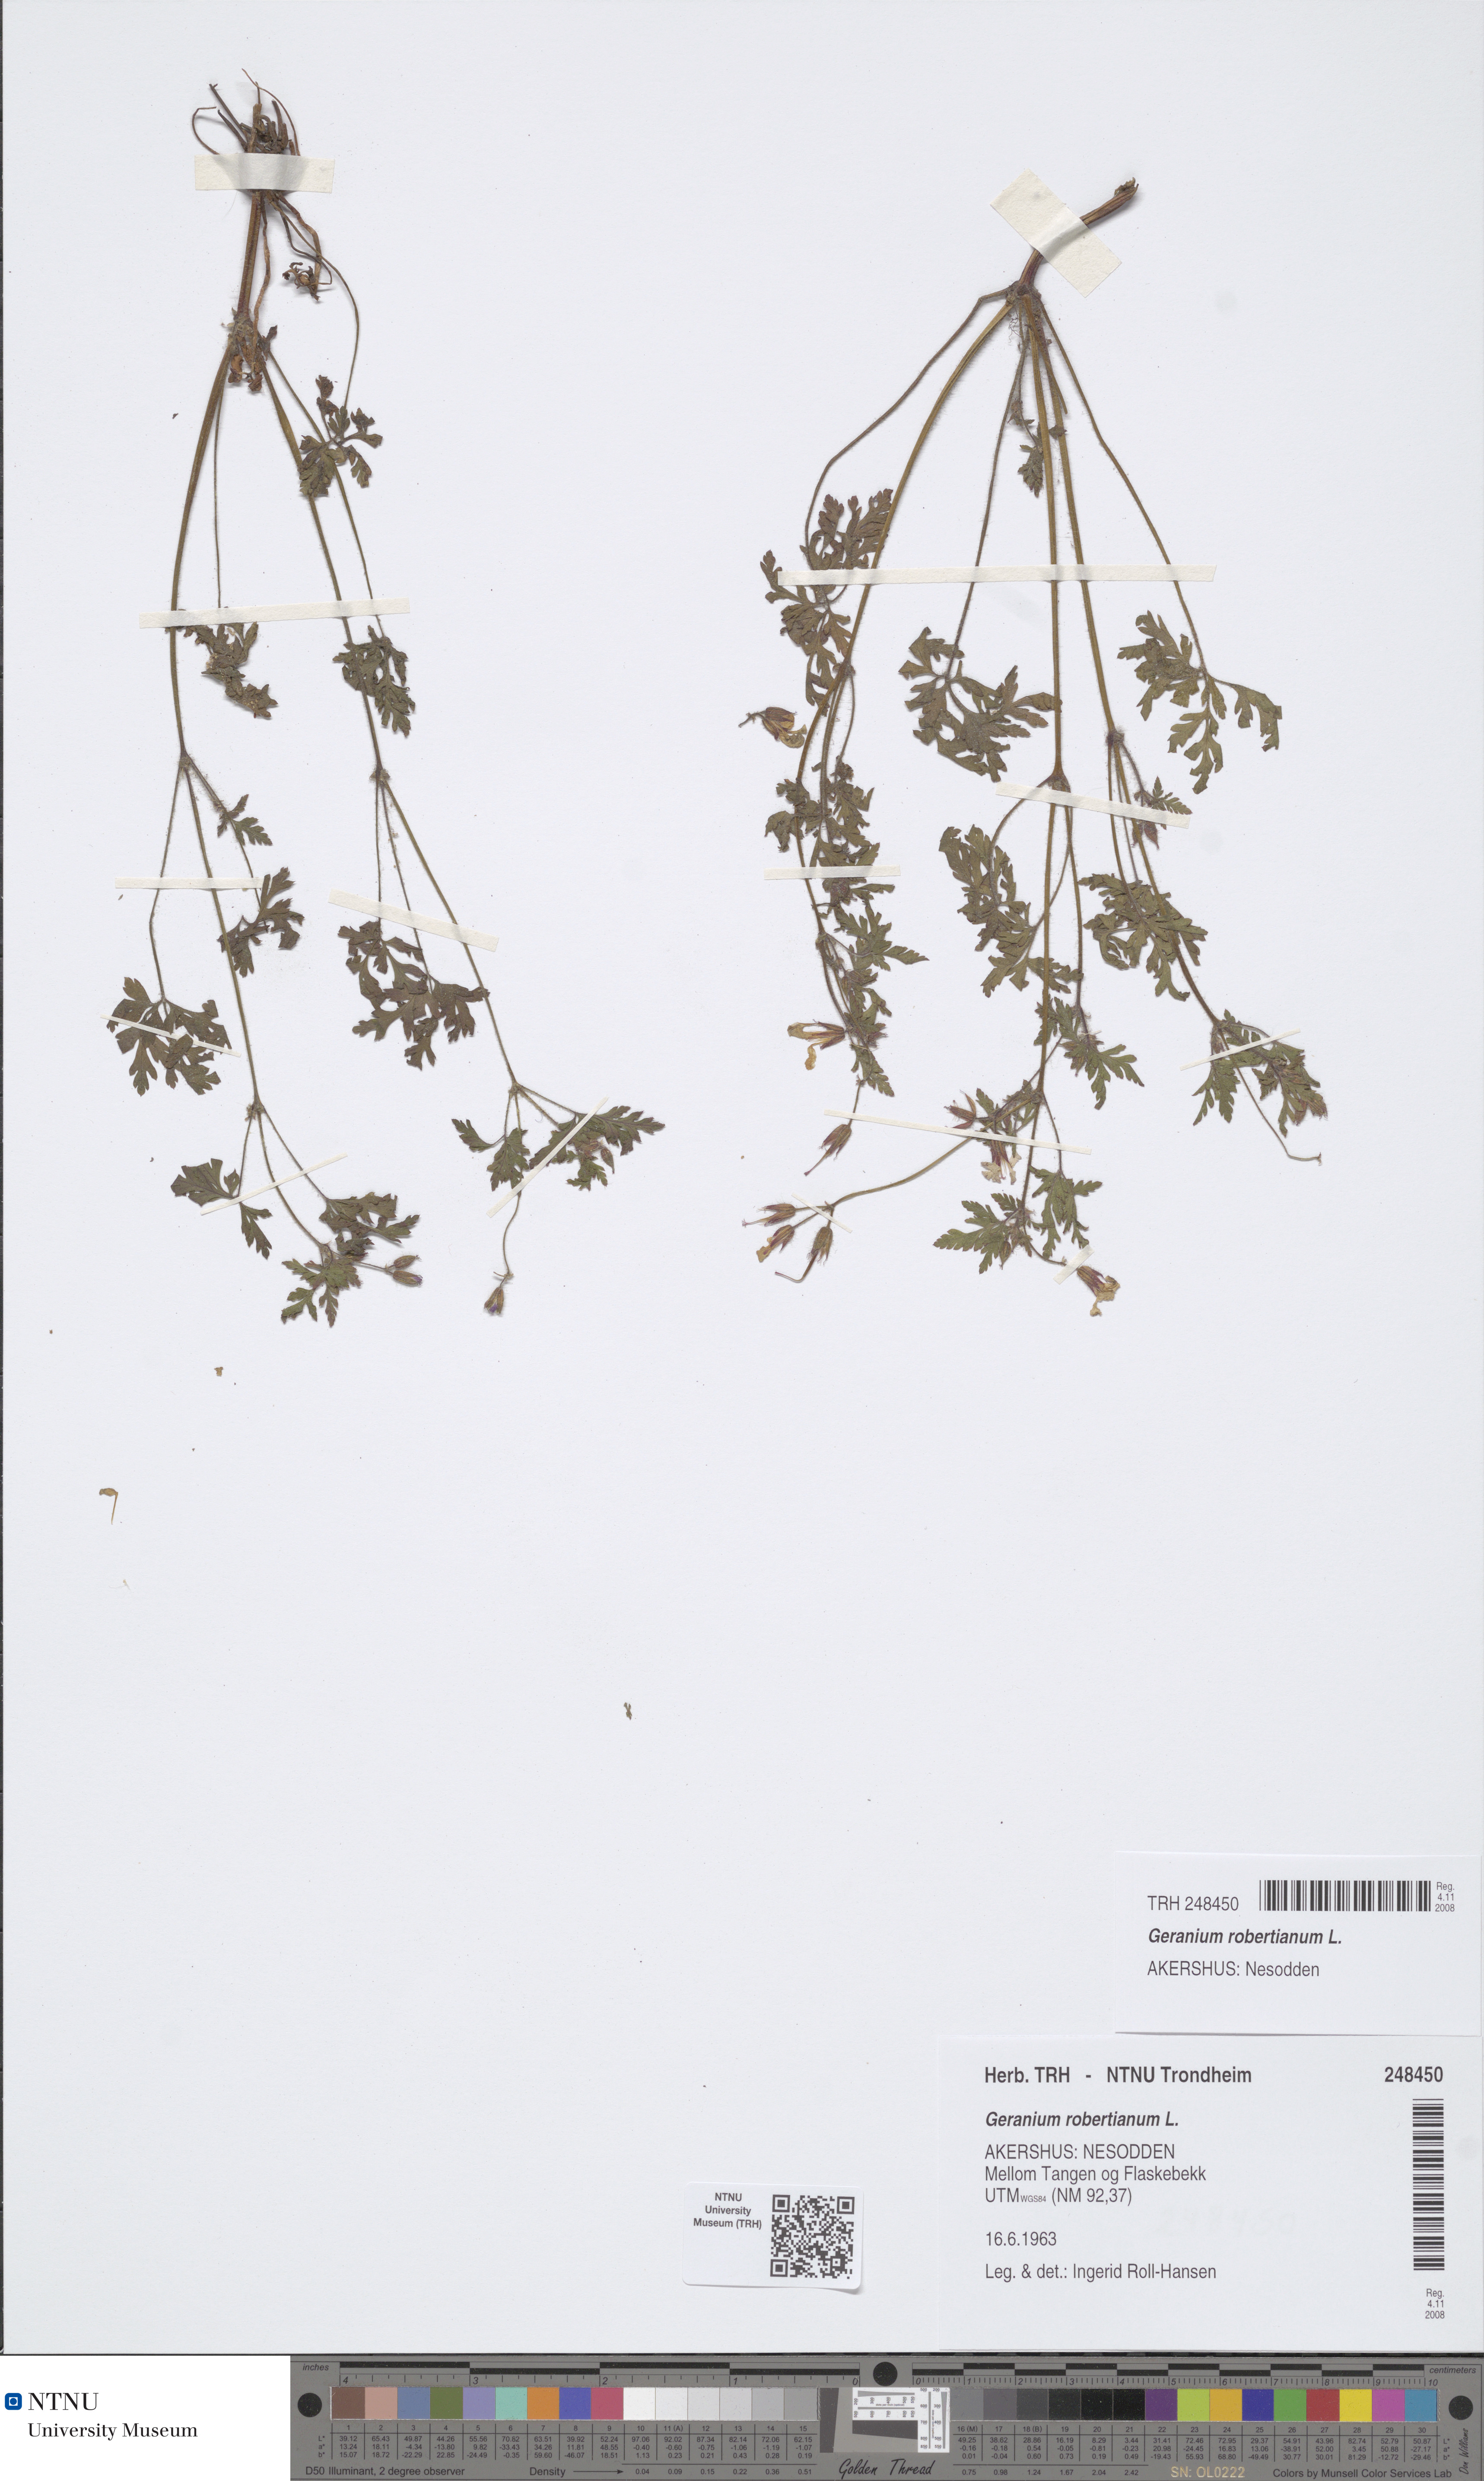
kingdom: Plantae
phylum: Tracheophyta
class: Magnoliopsida
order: Geraniales
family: Geraniaceae
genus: Geranium
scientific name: Geranium robertianum
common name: Herb-robert
